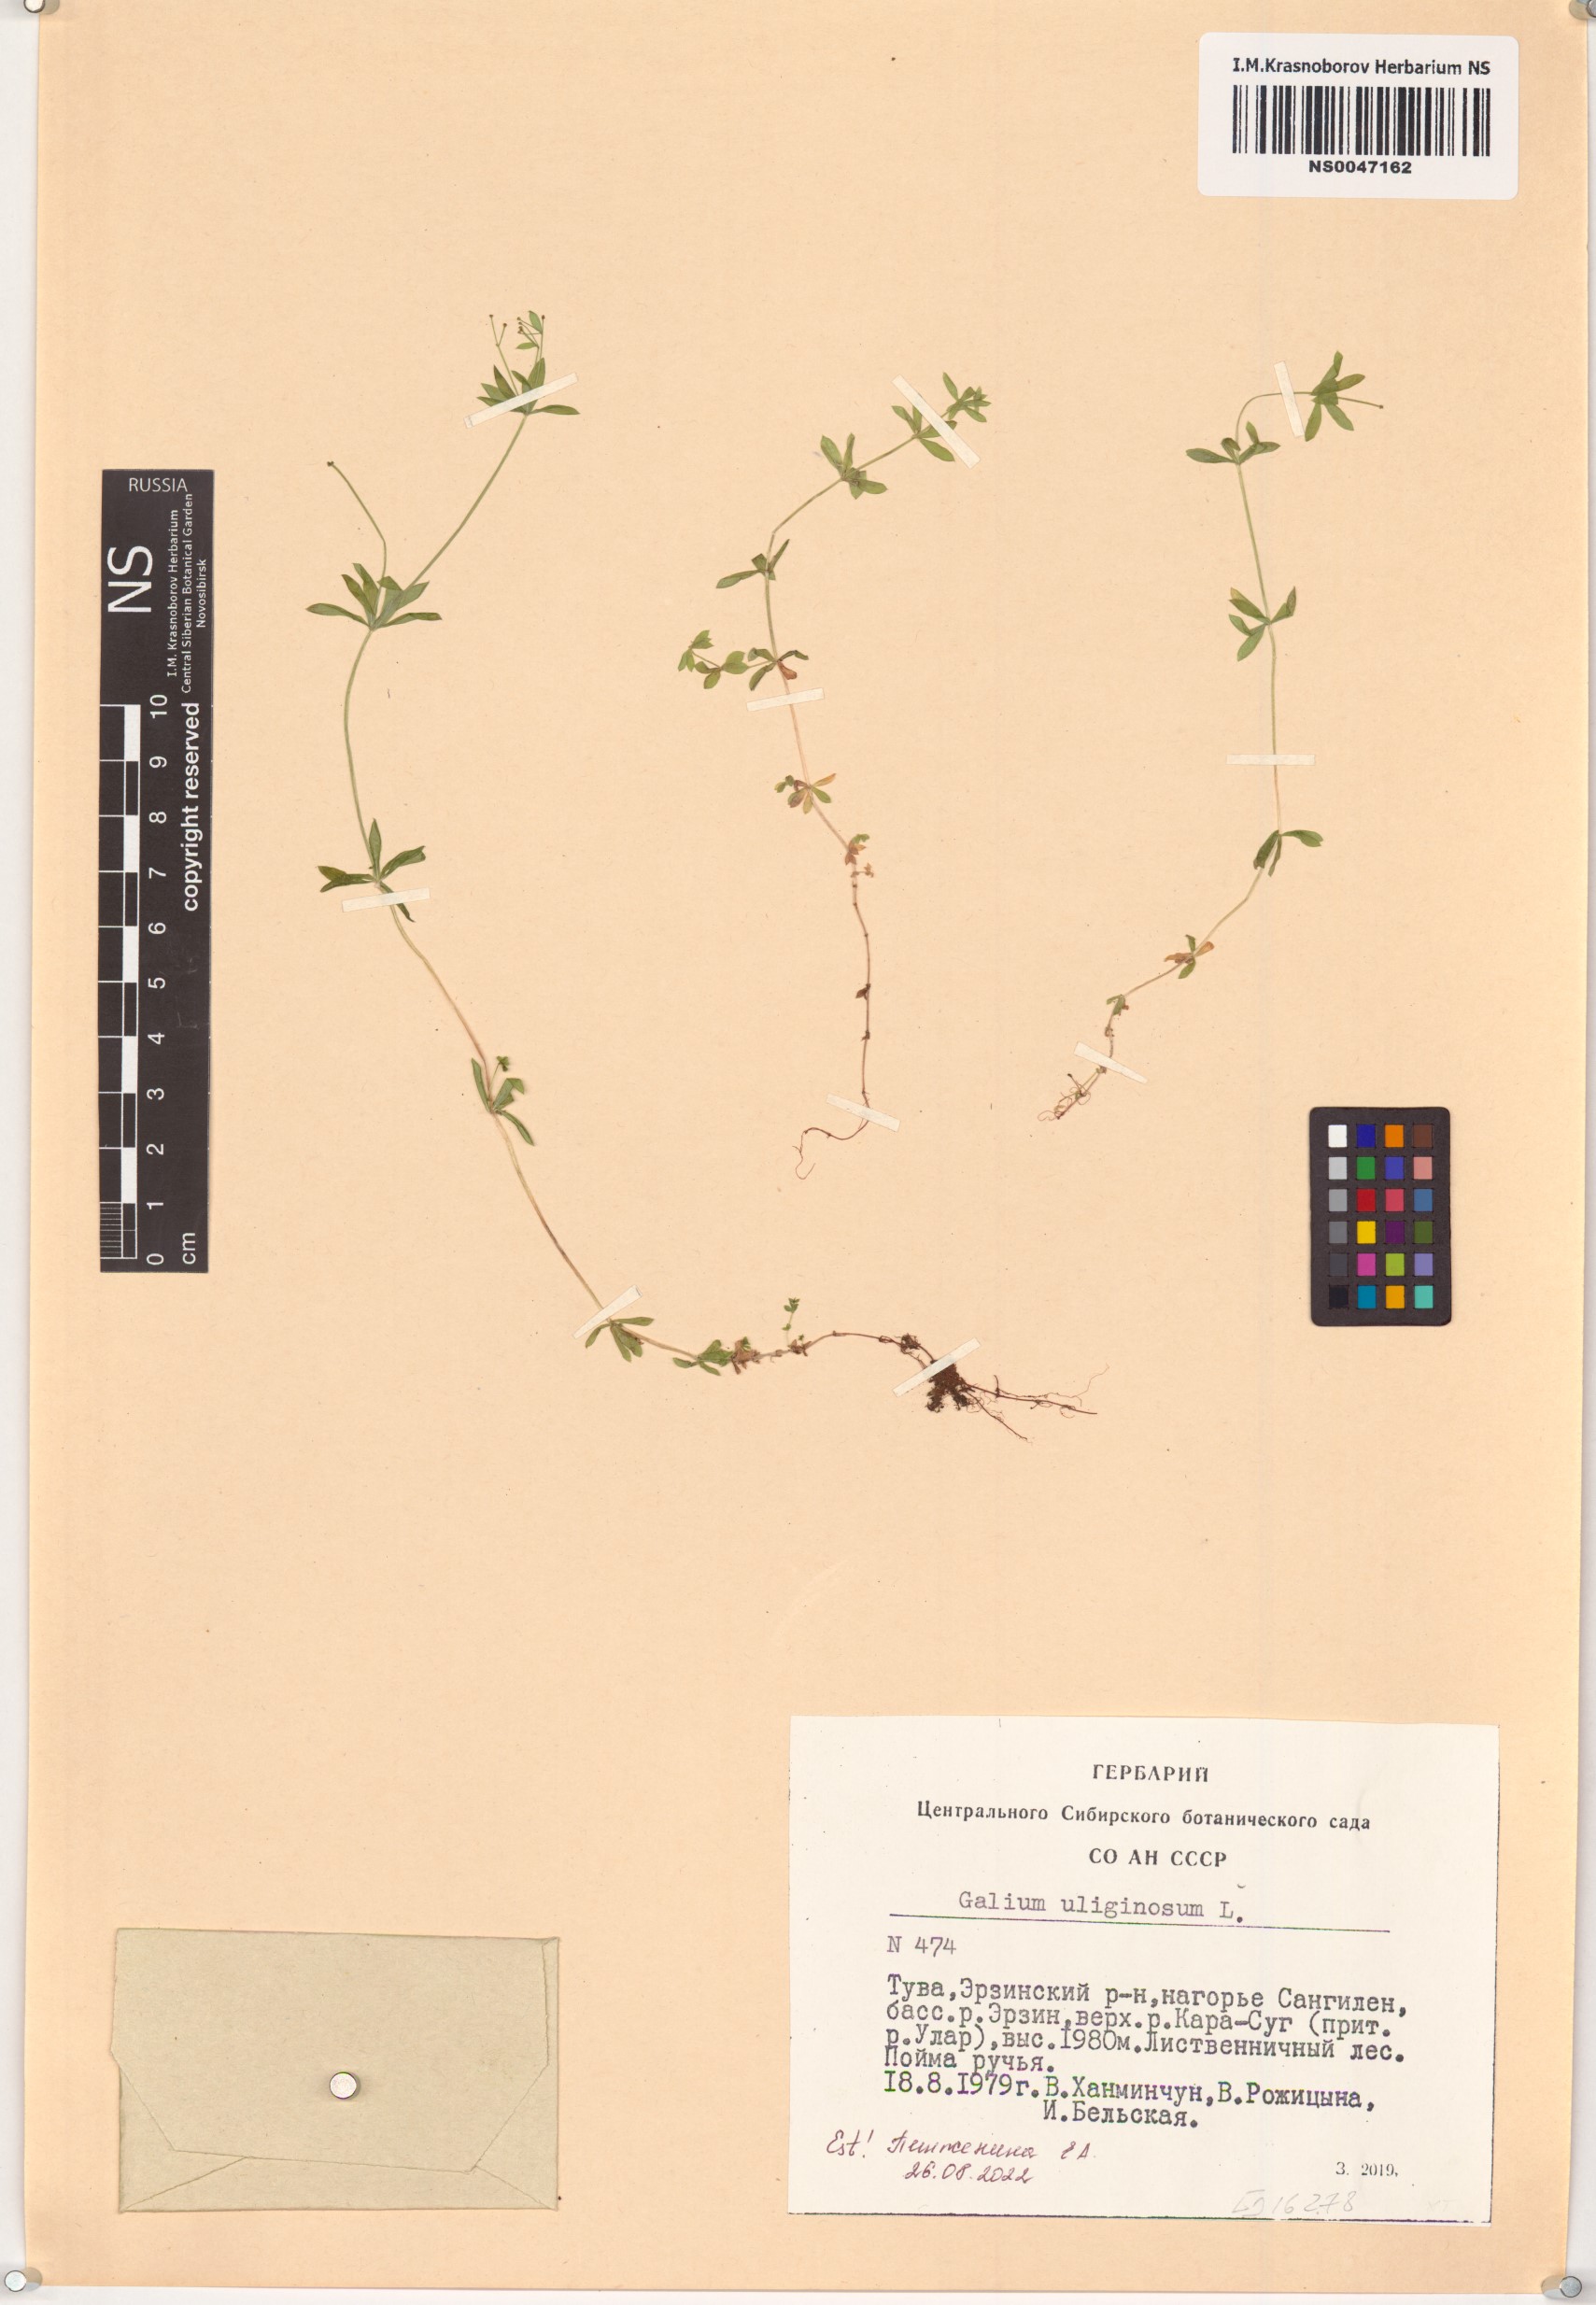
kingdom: Plantae
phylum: Tracheophyta
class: Magnoliopsida
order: Gentianales
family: Rubiaceae
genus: Galium
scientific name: Galium uliginosum
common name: Fen bedstraw
